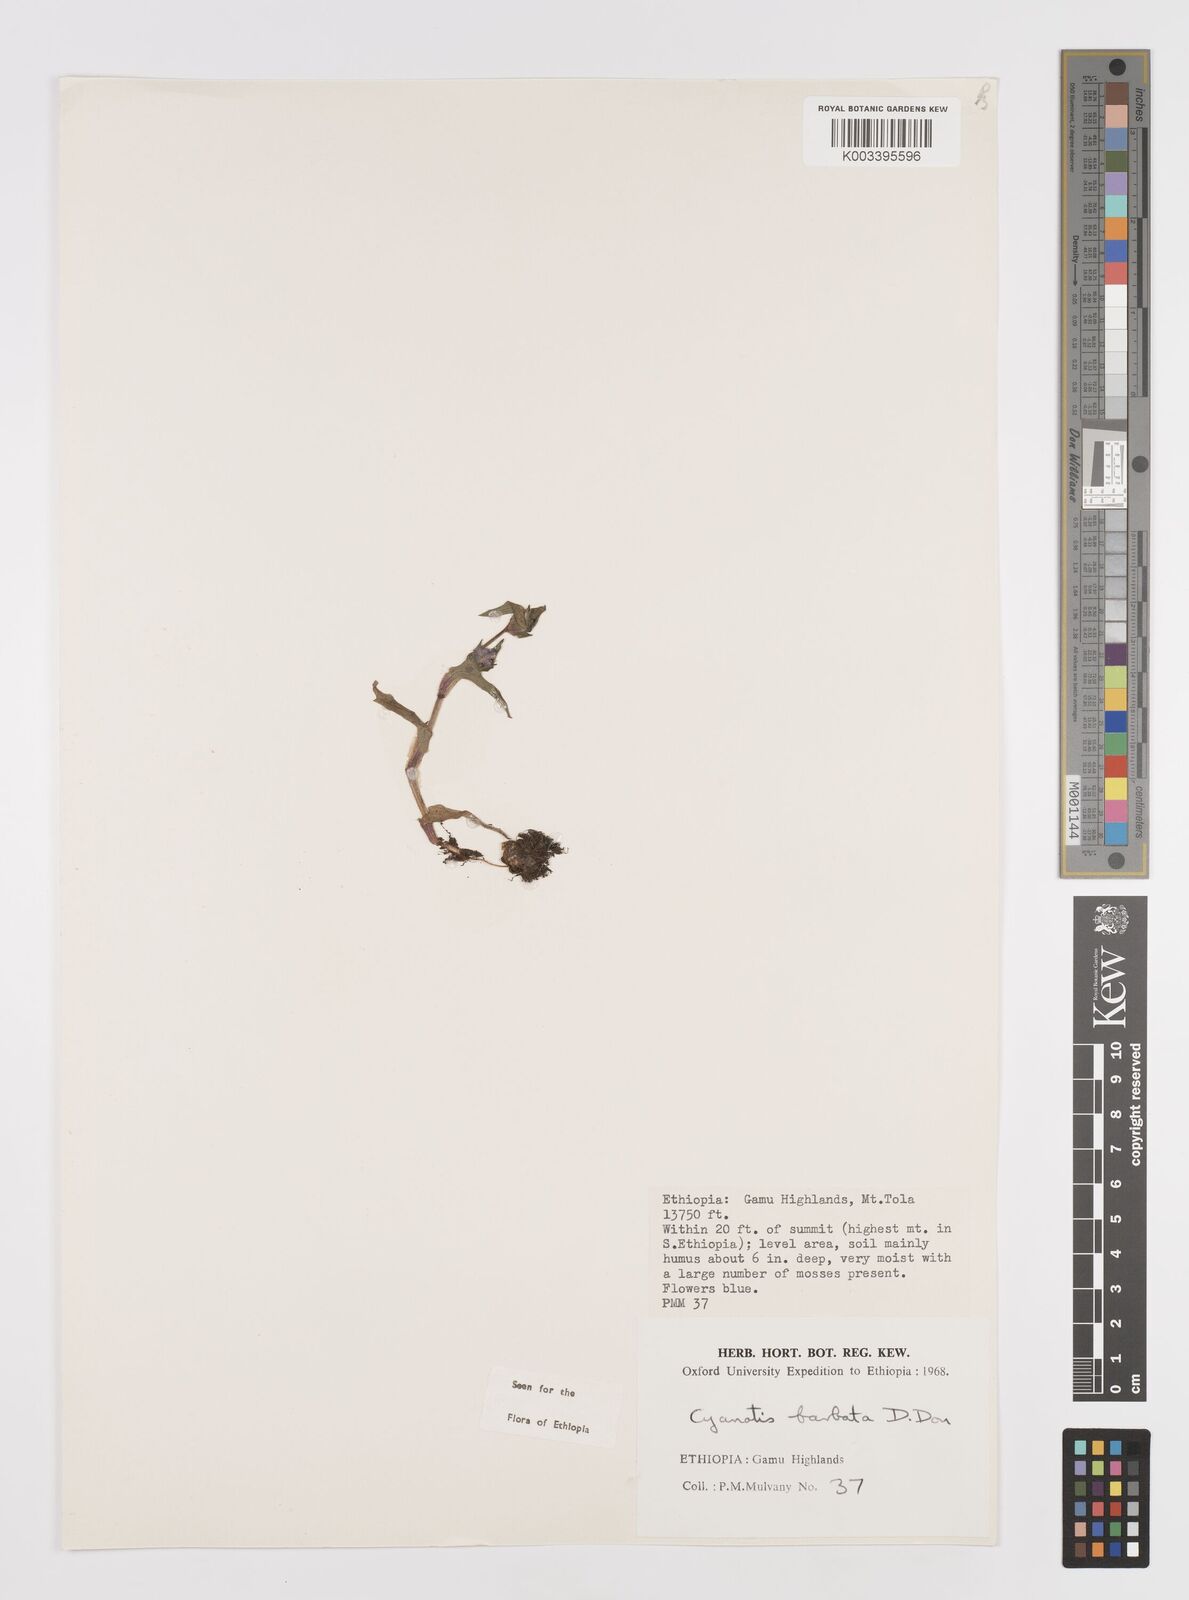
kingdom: Plantae
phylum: Tracheophyta
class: Liliopsida
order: Commelinales
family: Commelinaceae
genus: Cyanotis
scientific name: Cyanotis vaga
